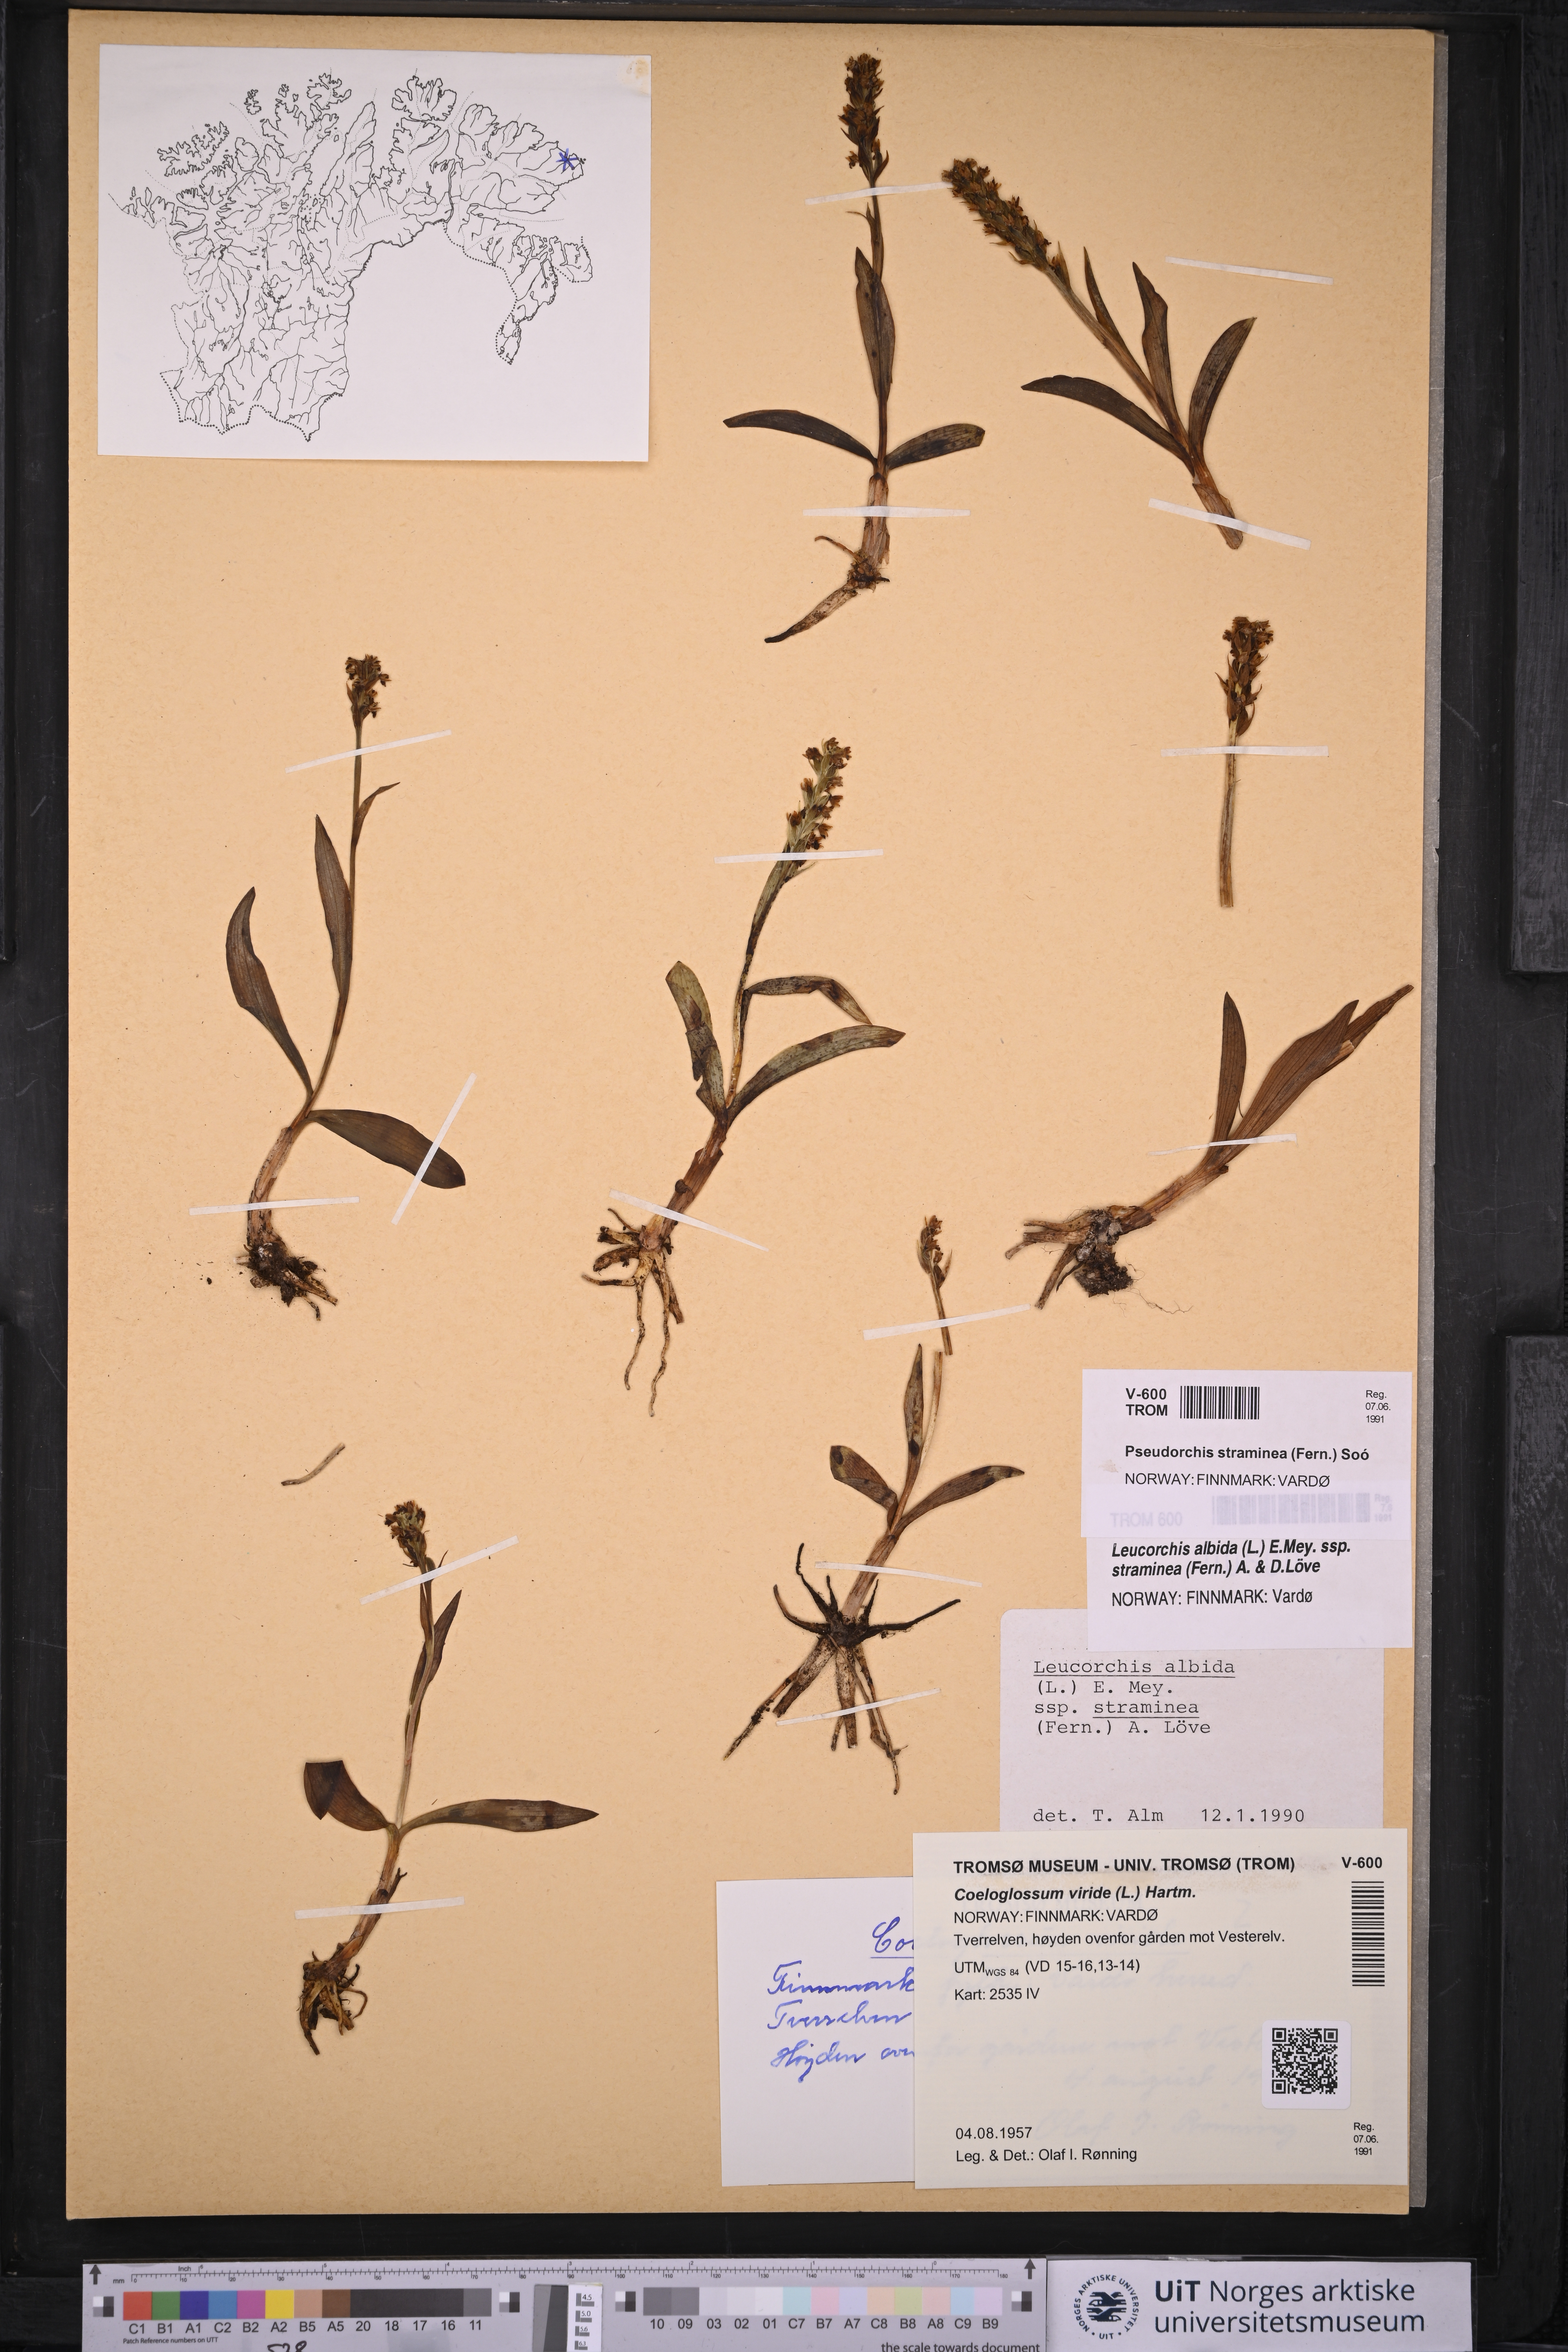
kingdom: Plantae
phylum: Tracheophyta
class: Liliopsida
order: Asparagales
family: Orchidaceae
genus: Pseudorchis
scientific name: Pseudorchis straminea
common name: Vanilla-scented bog orchid
